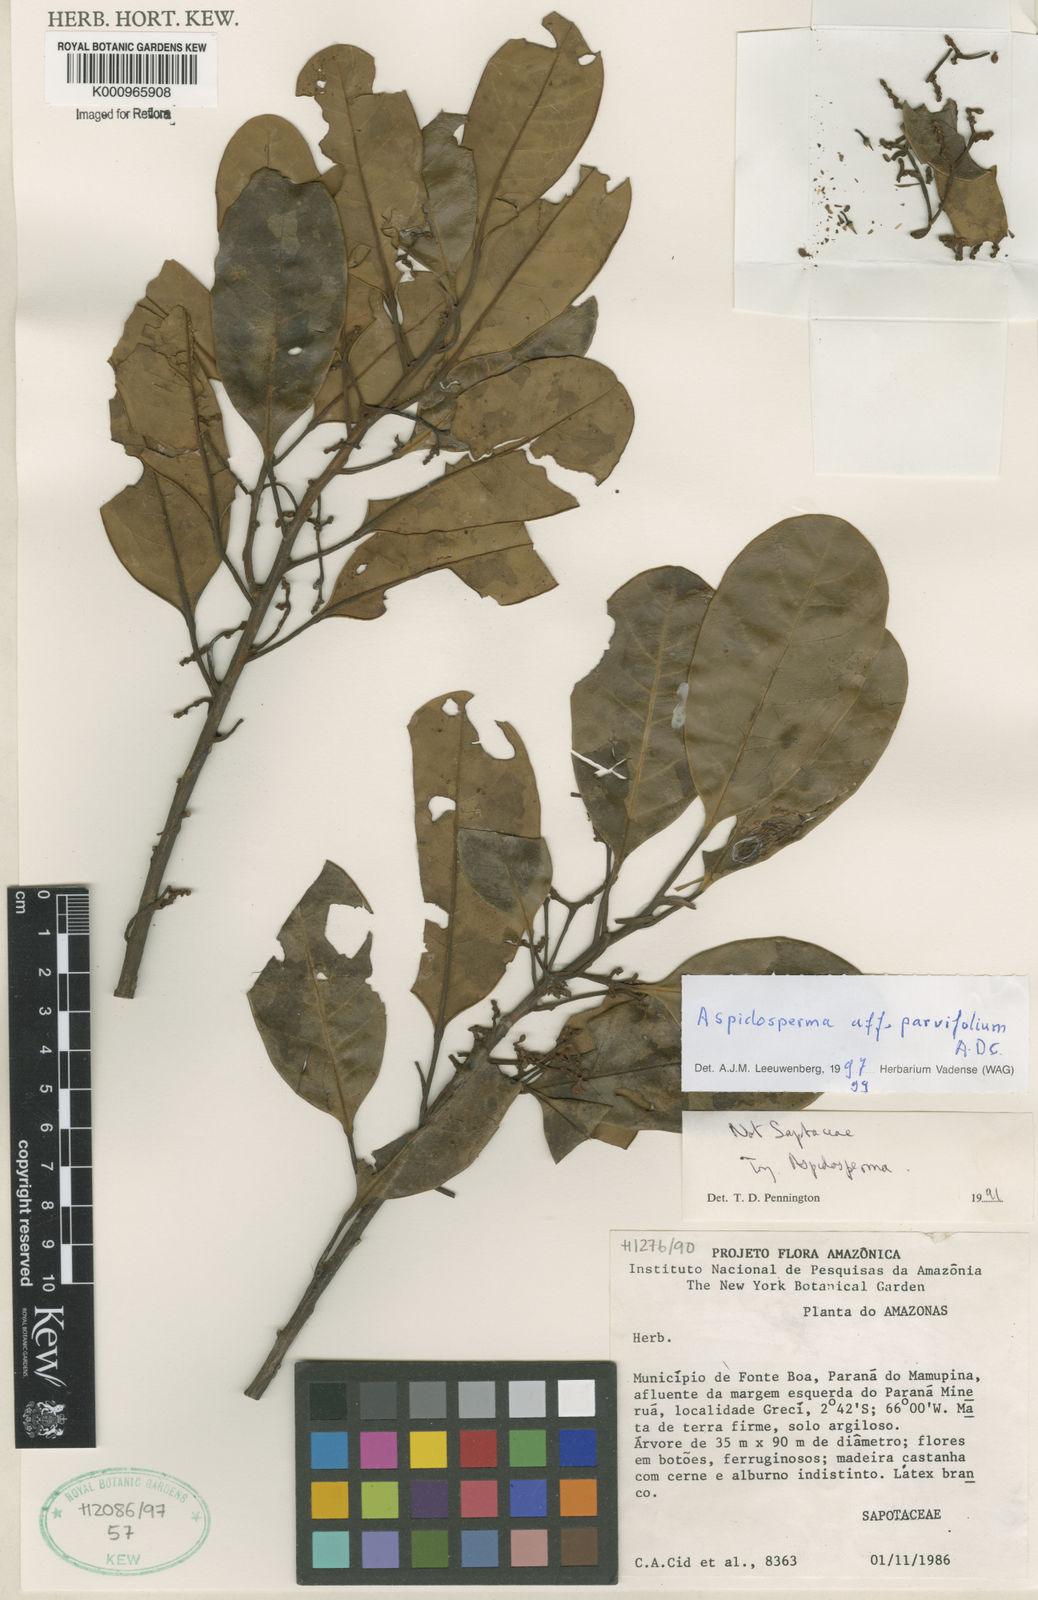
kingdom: Plantae
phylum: Tracheophyta
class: Magnoliopsida
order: Gentianales
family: Apocynaceae
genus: Aspidosperma
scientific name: Aspidosperma
